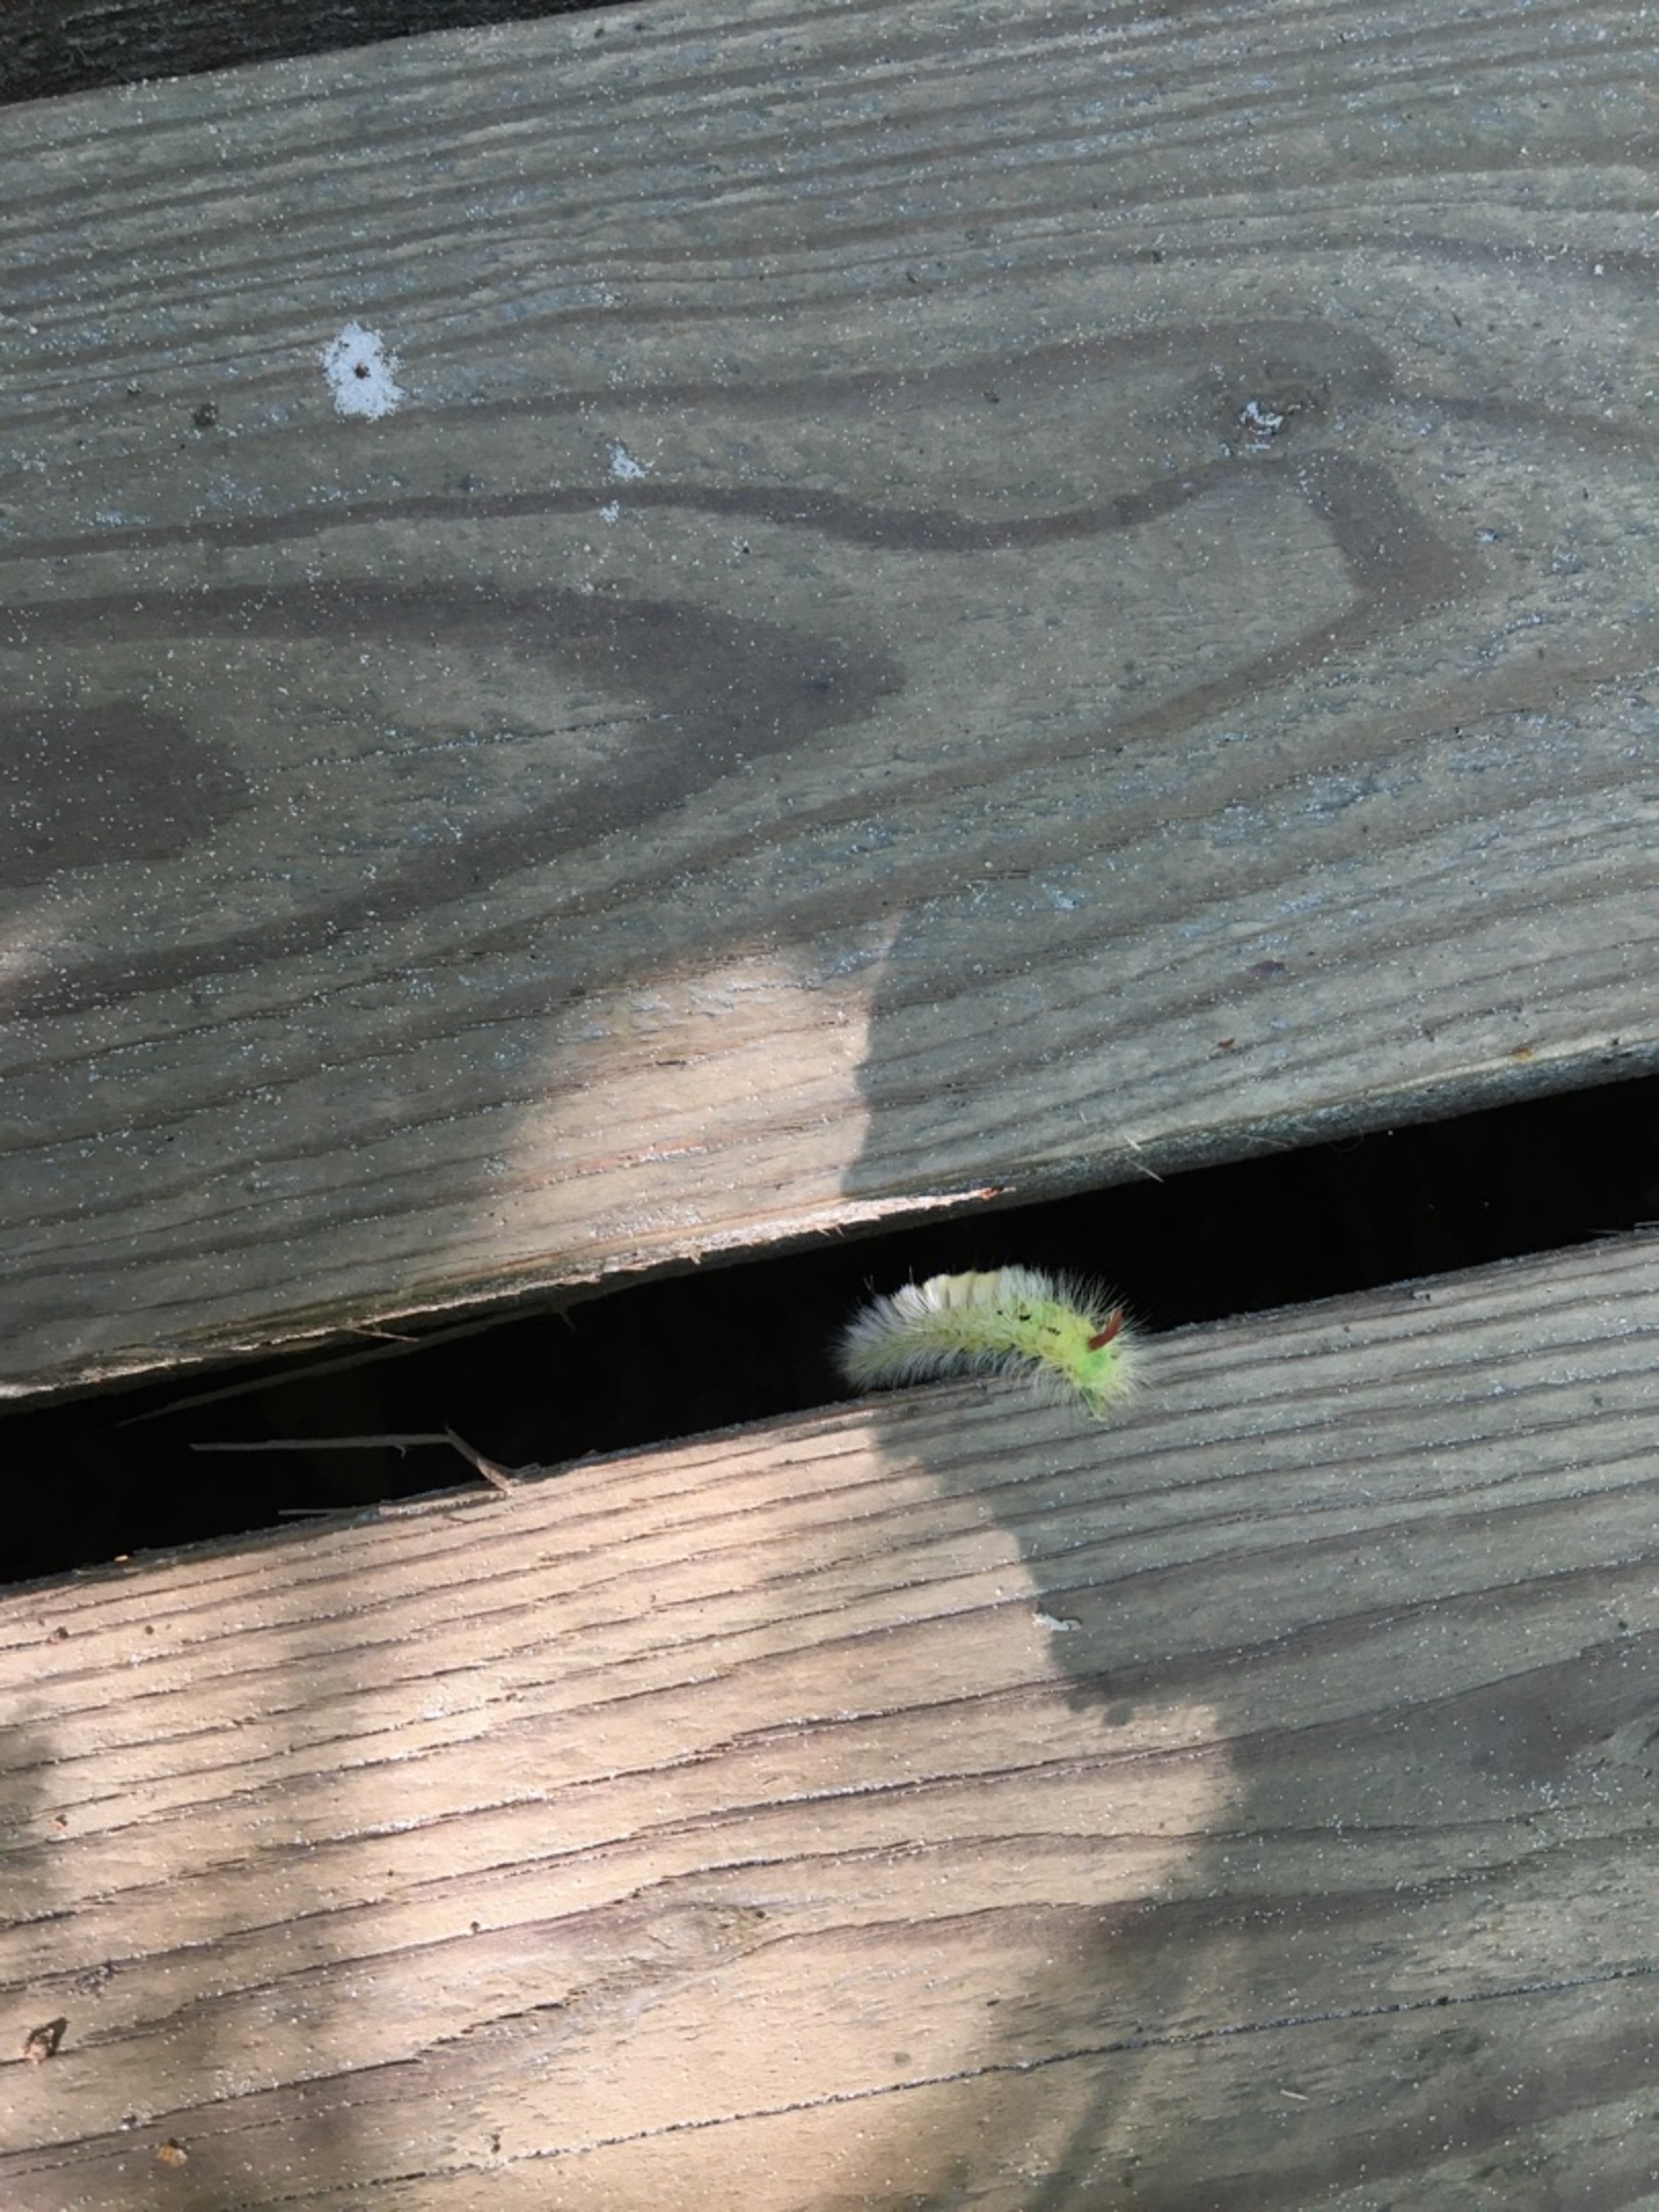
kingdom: Animalia
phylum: Arthropoda
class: Insecta
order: Lepidoptera
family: Erebidae
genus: Calliteara
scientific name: Calliteara pudibunda
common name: Bøgenonne
